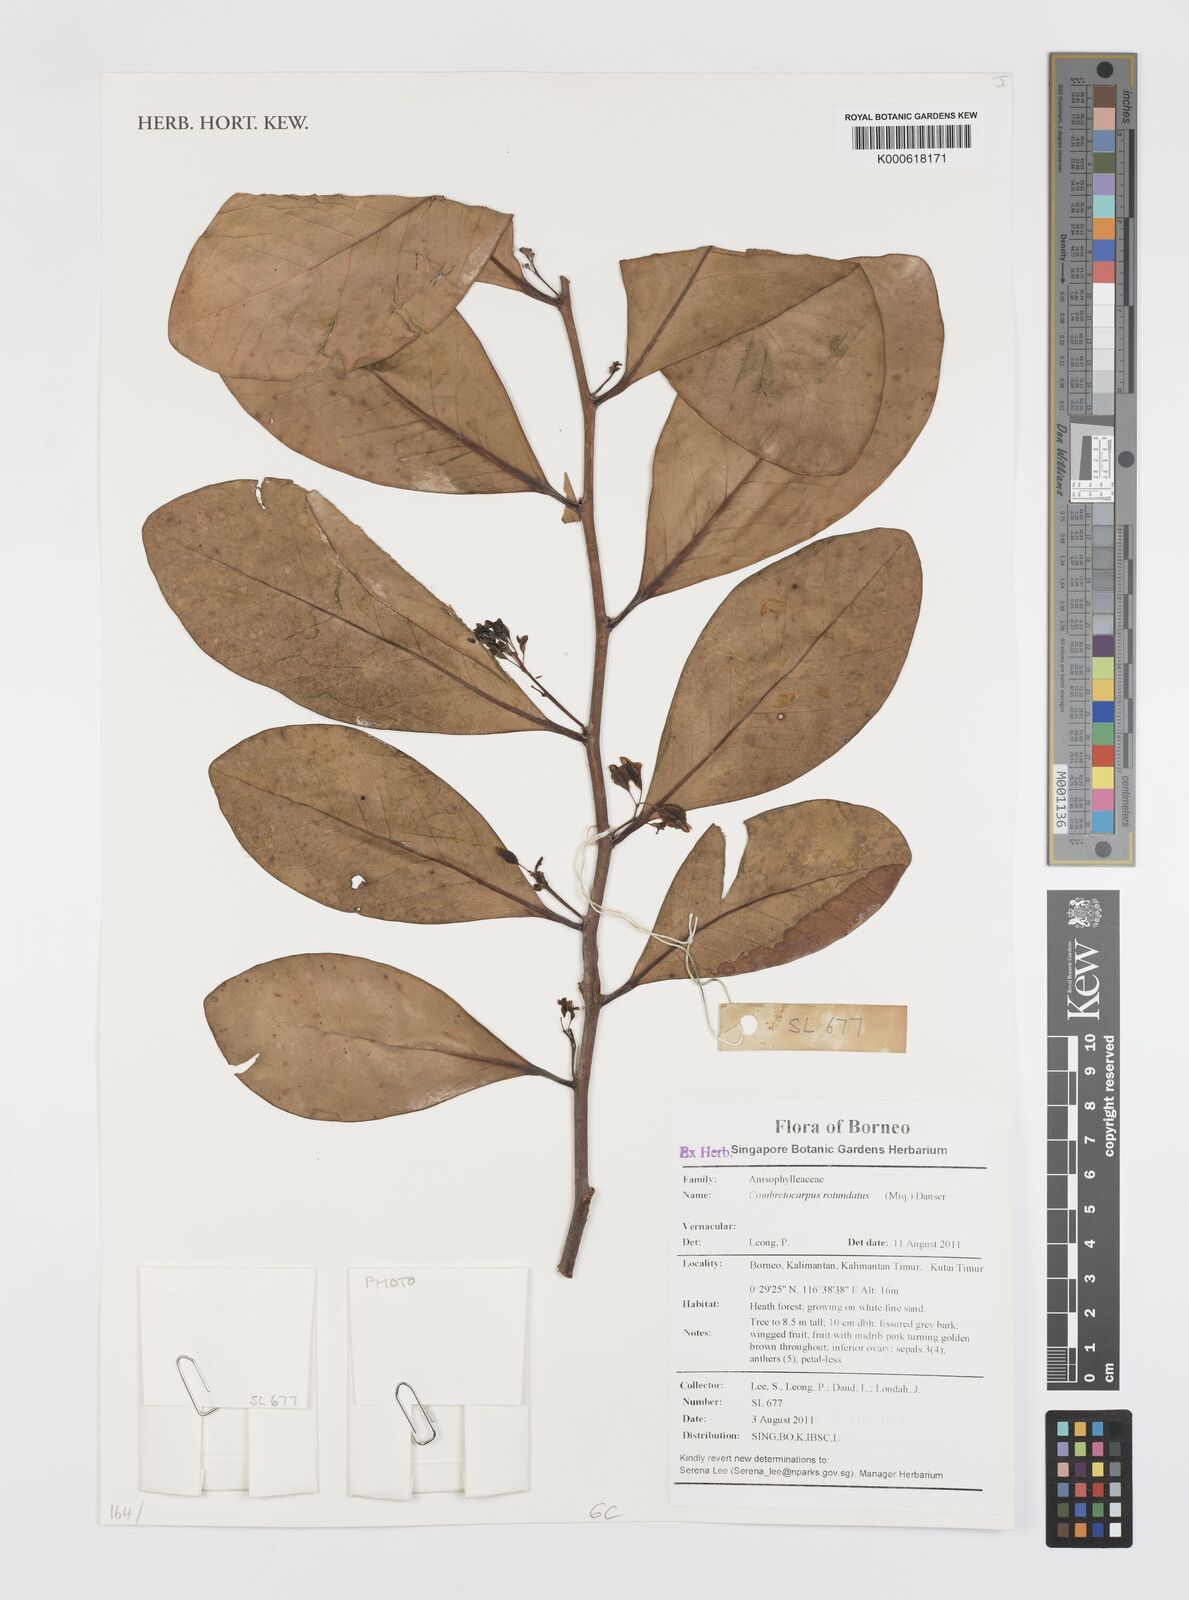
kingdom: Plantae
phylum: Tracheophyta
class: Magnoliopsida
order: Cucurbitales
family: Anisophylleaceae
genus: Combretocarpus
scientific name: Combretocarpus rotundatus
